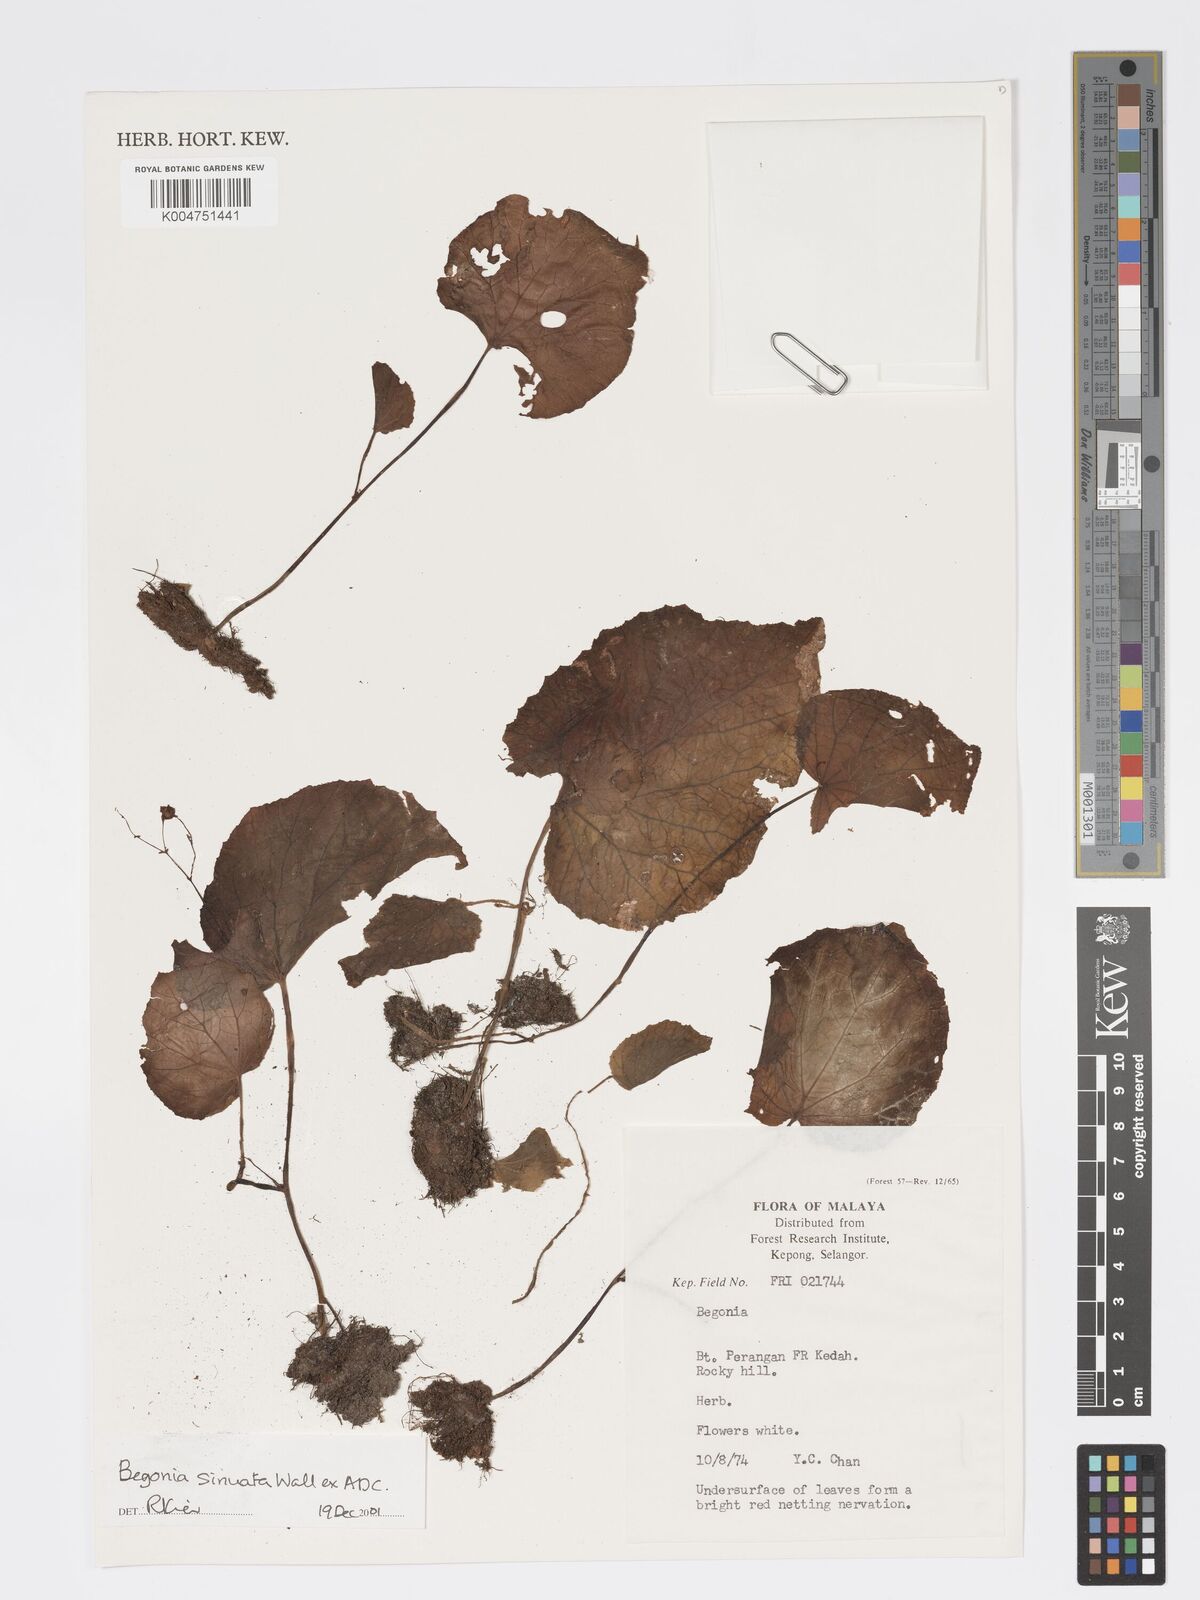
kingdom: Plantae
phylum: Tracheophyta
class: Magnoliopsida
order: Cucurbitales
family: Begoniaceae
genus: Begonia
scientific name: Begonia
